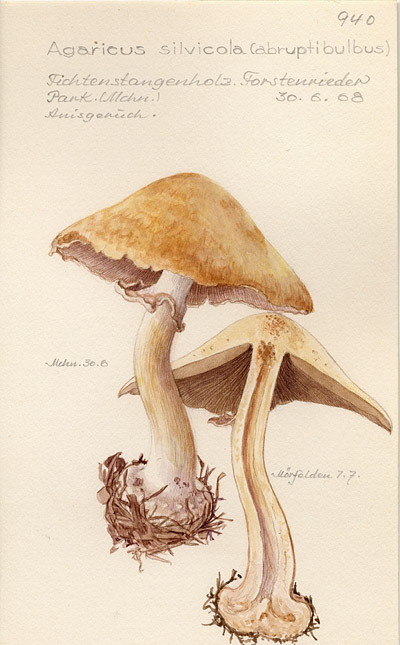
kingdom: Fungi
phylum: Basidiomycota
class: Agaricomycetes
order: Agaricales
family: Agaricaceae
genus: Agaricus
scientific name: Agaricus sylvicola
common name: Wood mushroom
